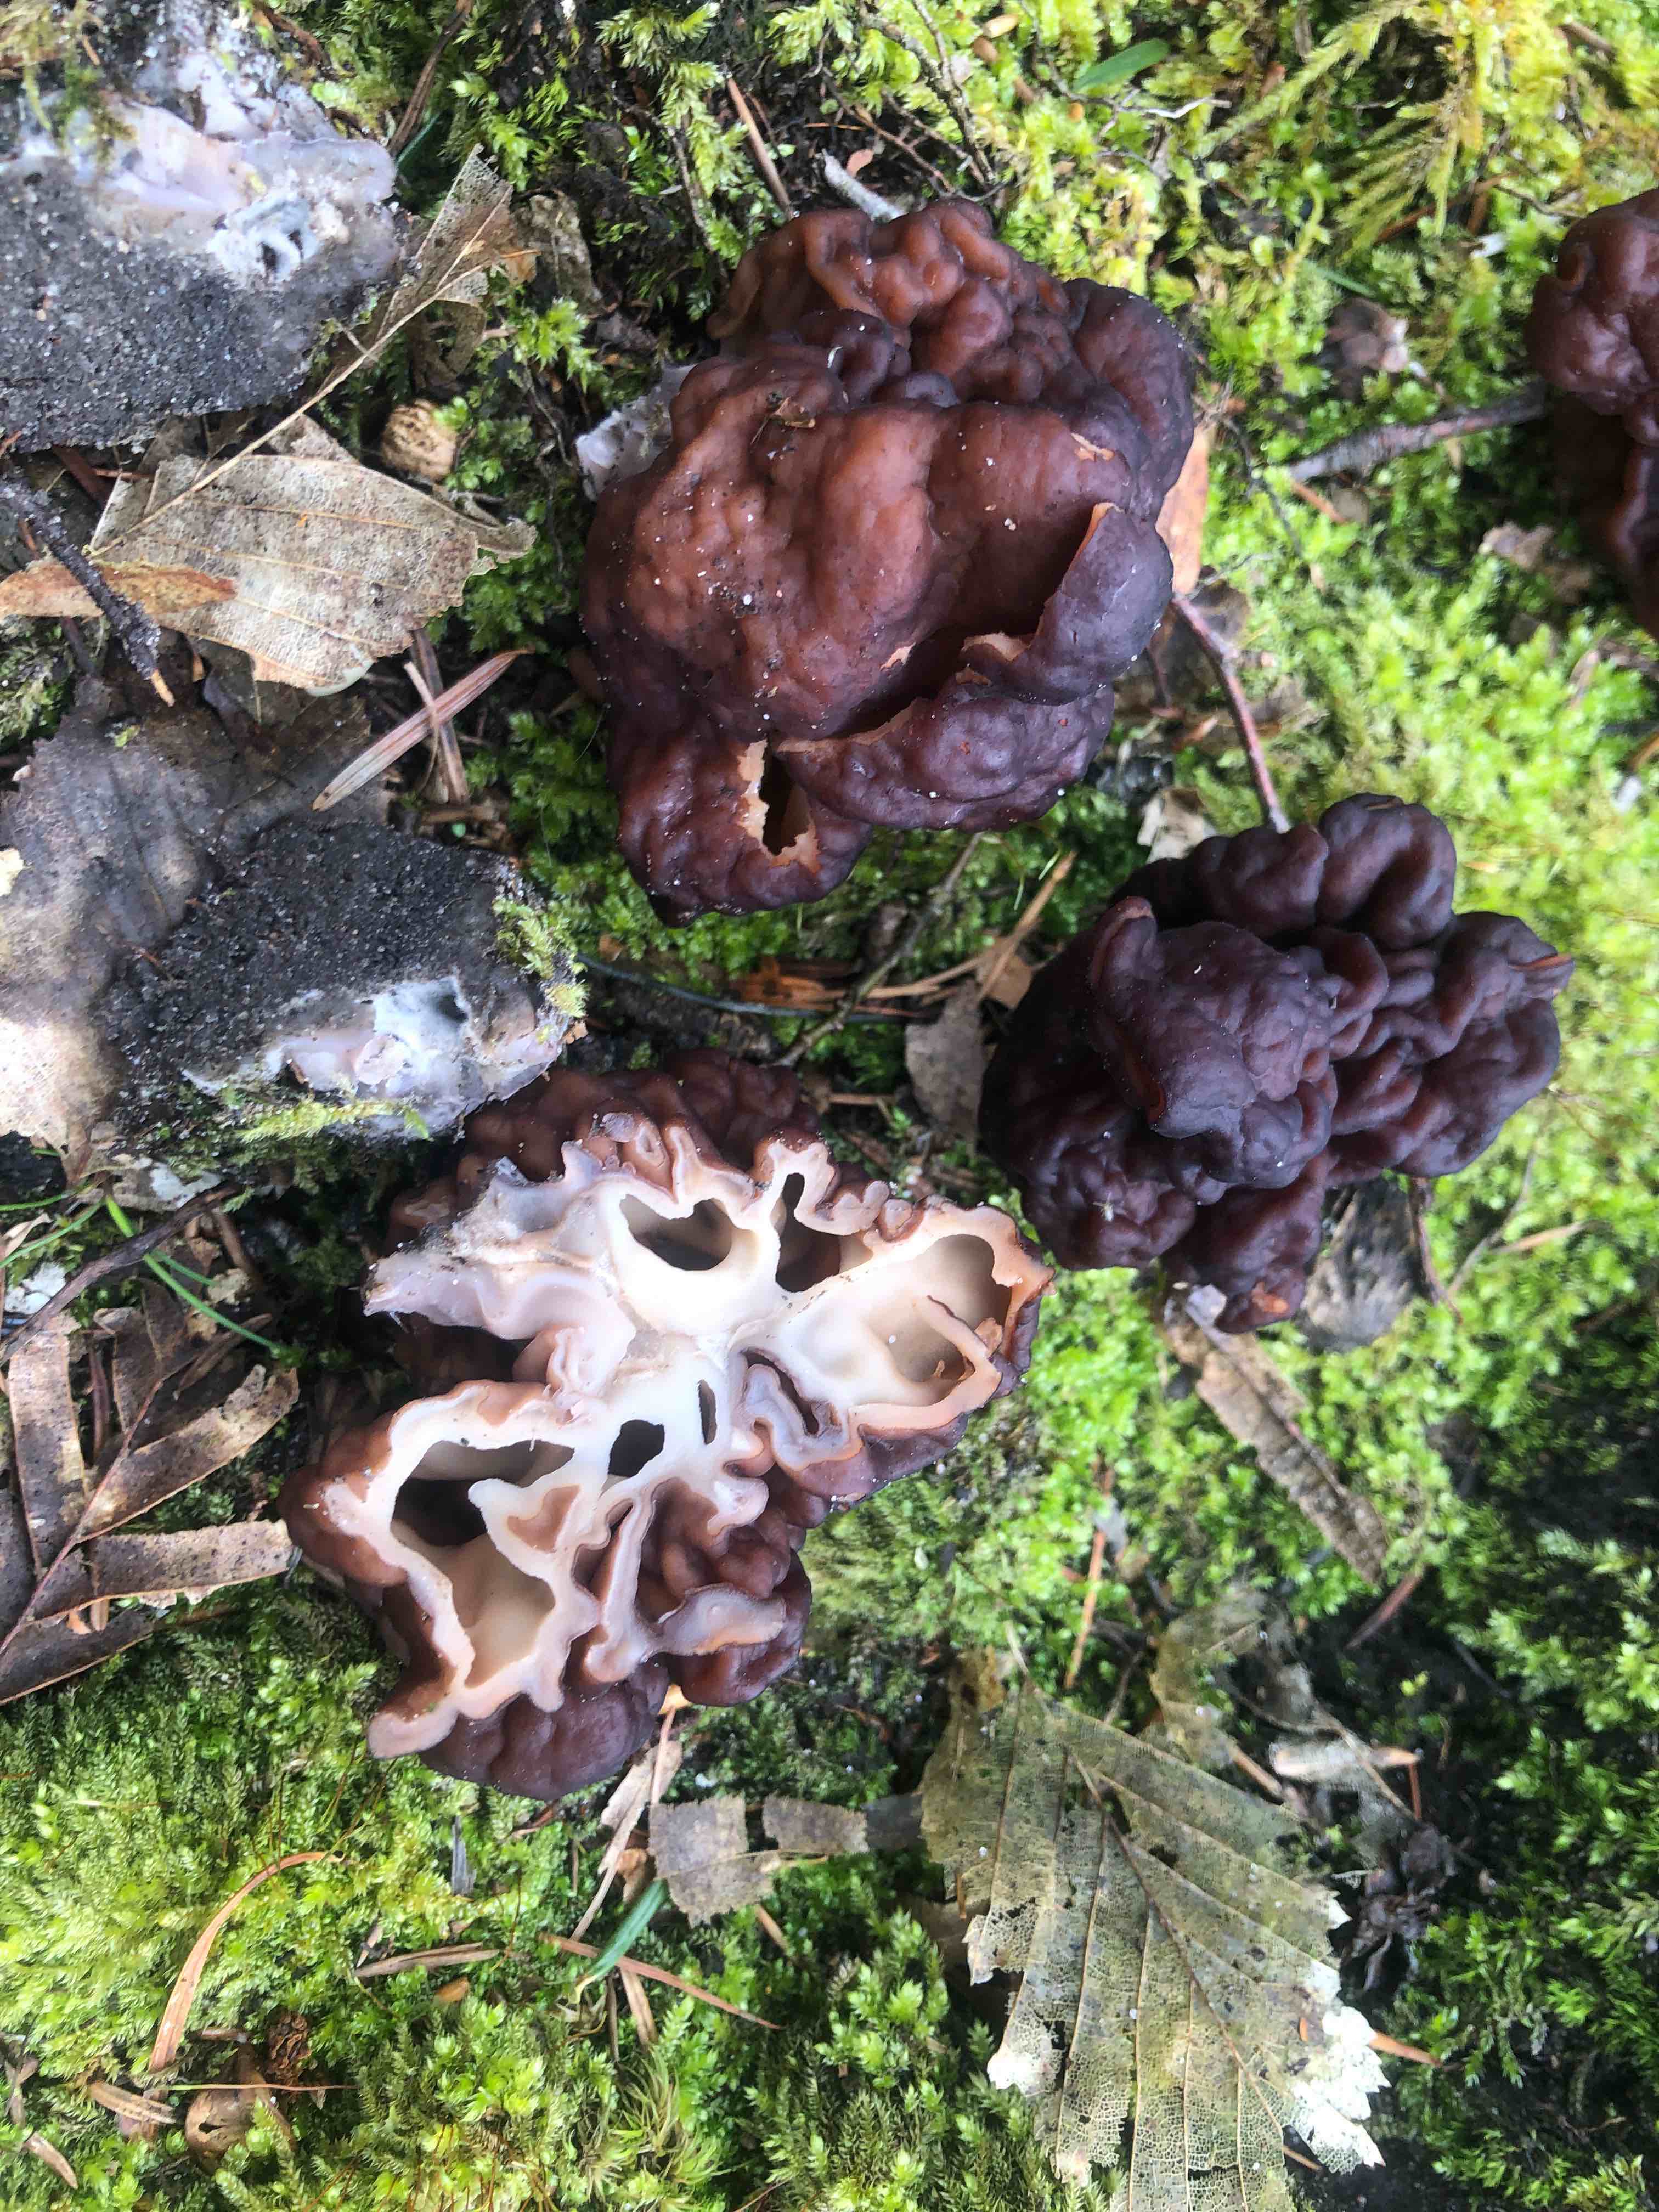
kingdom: Fungi
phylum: Ascomycota
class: Pezizomycetes
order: Pezizales
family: Discinaceae
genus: Gyromitra
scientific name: Gyromitra esculenta
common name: ægte stenmorkel
